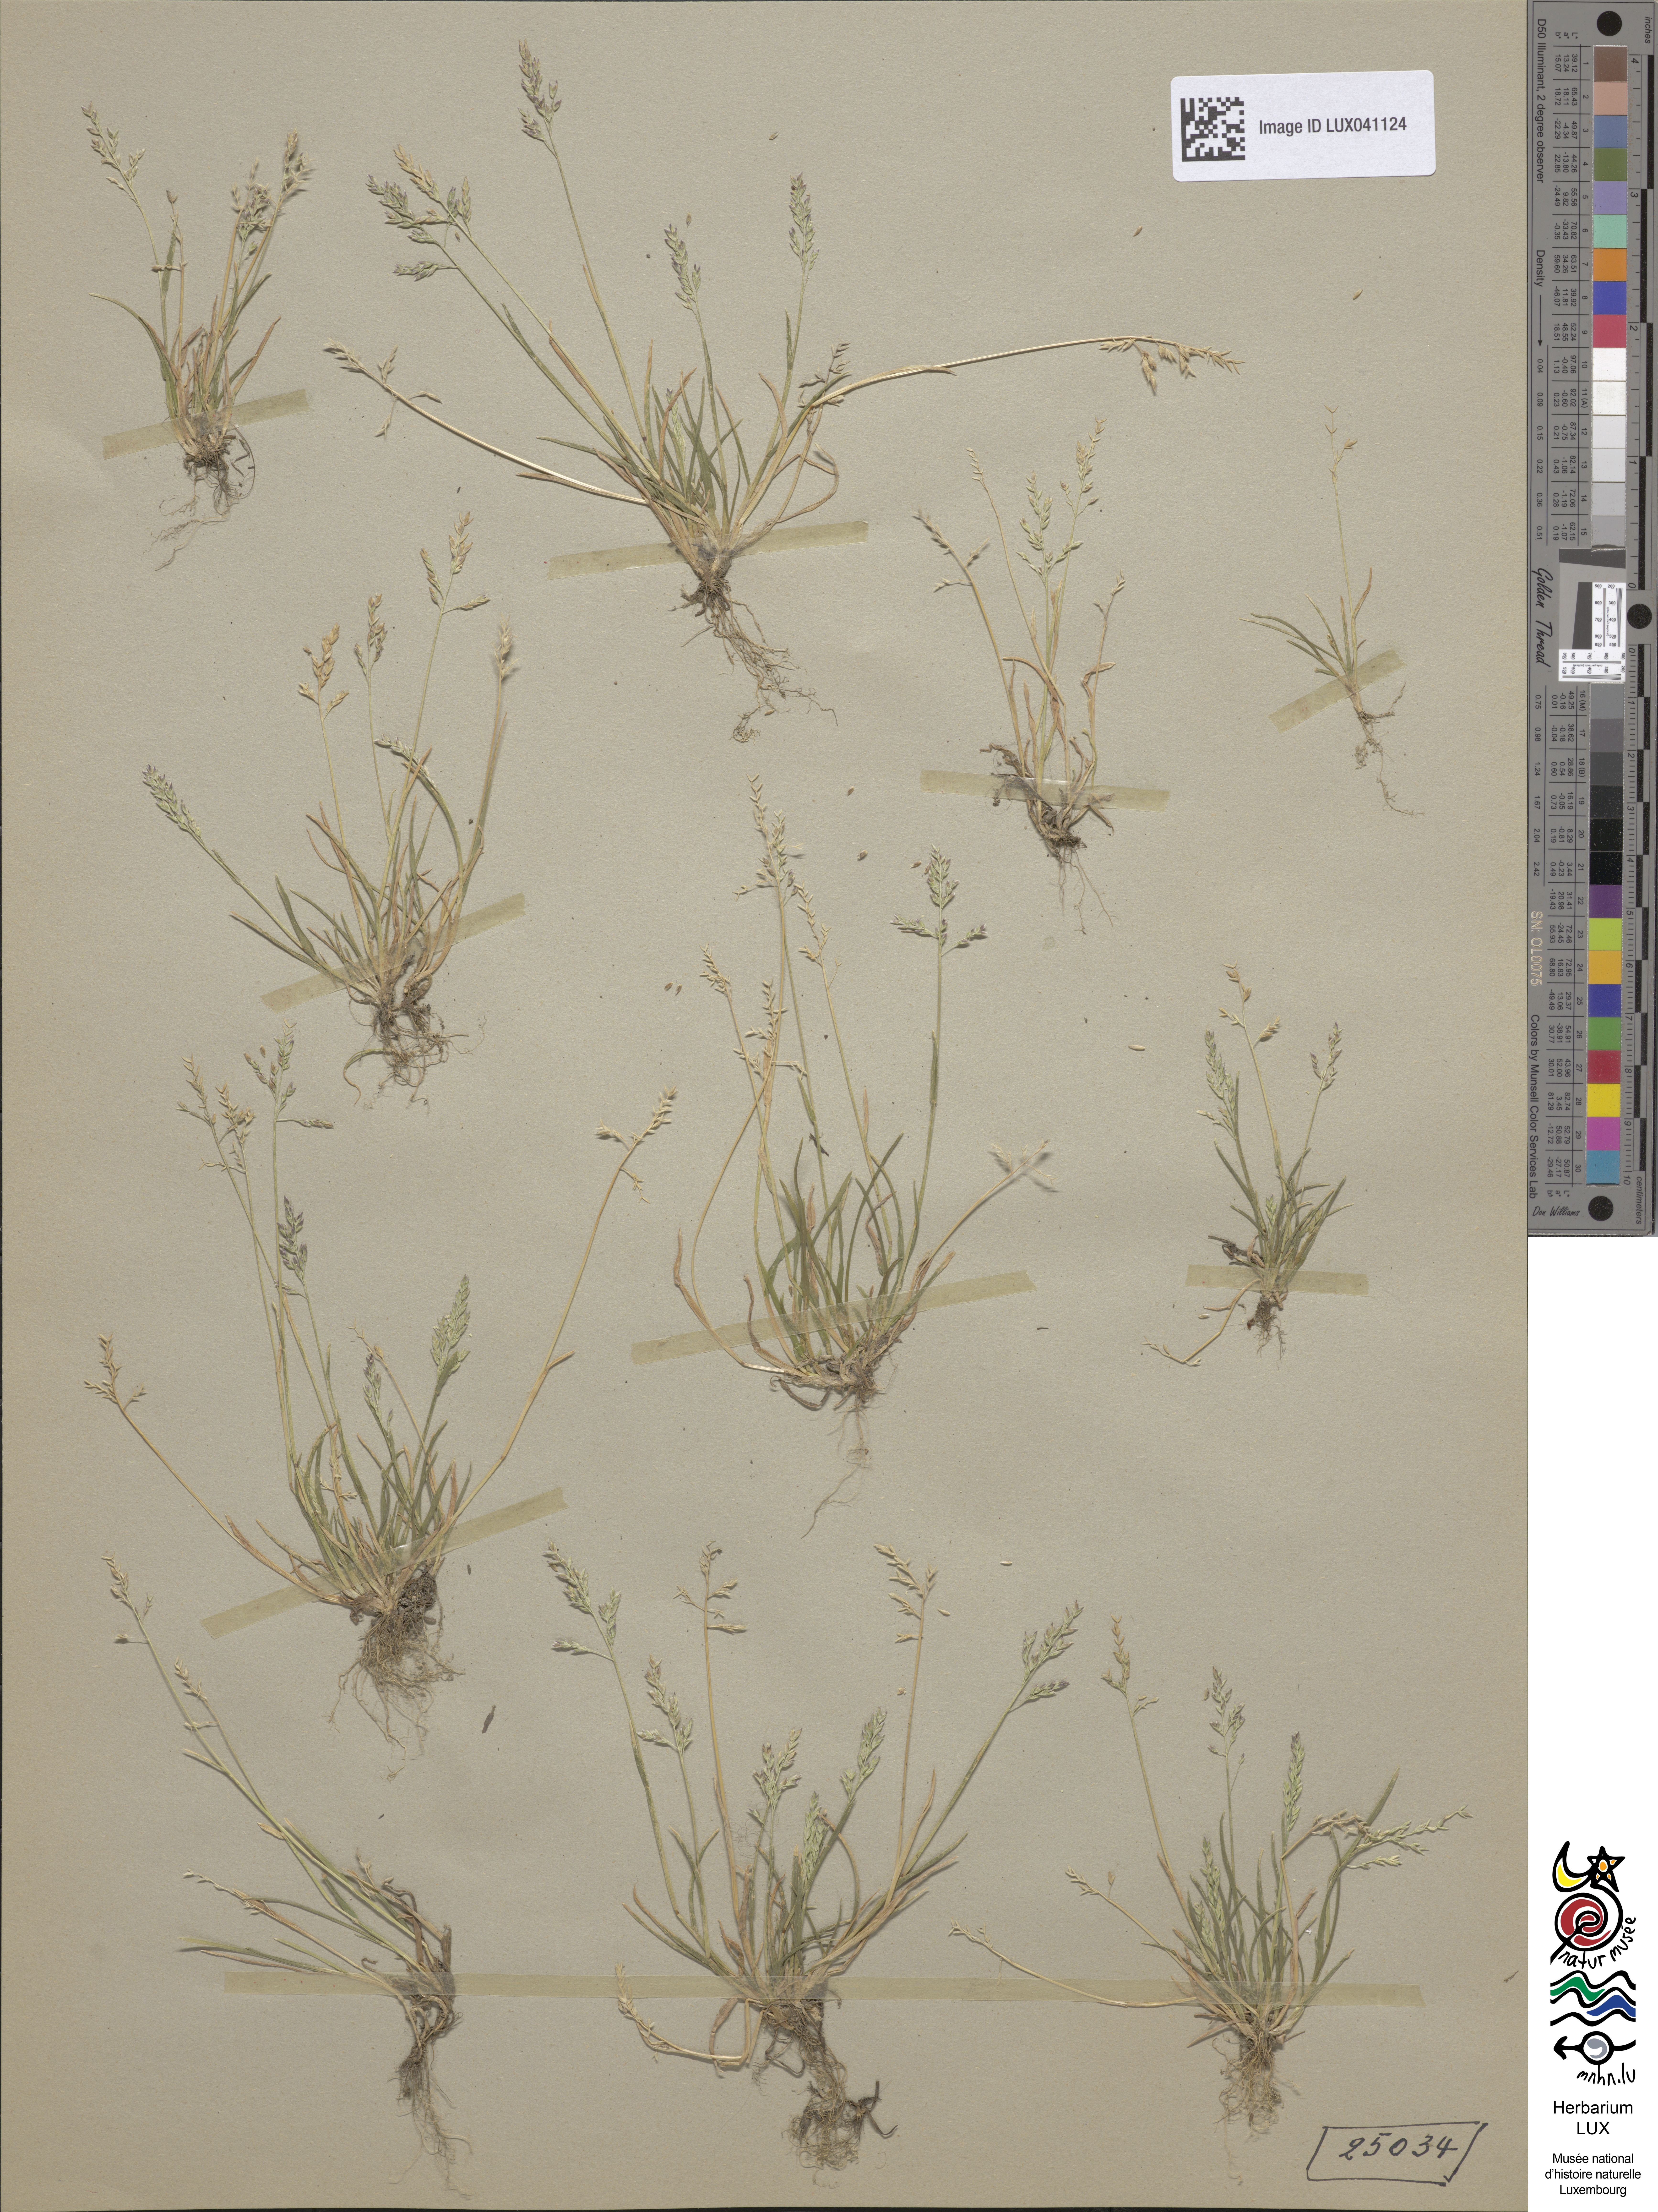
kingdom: Plantae
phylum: Tracheophyta
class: Liliopsida
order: Poales
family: Poaceae
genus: Poa
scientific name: Poa annua
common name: Annual bluegrass
